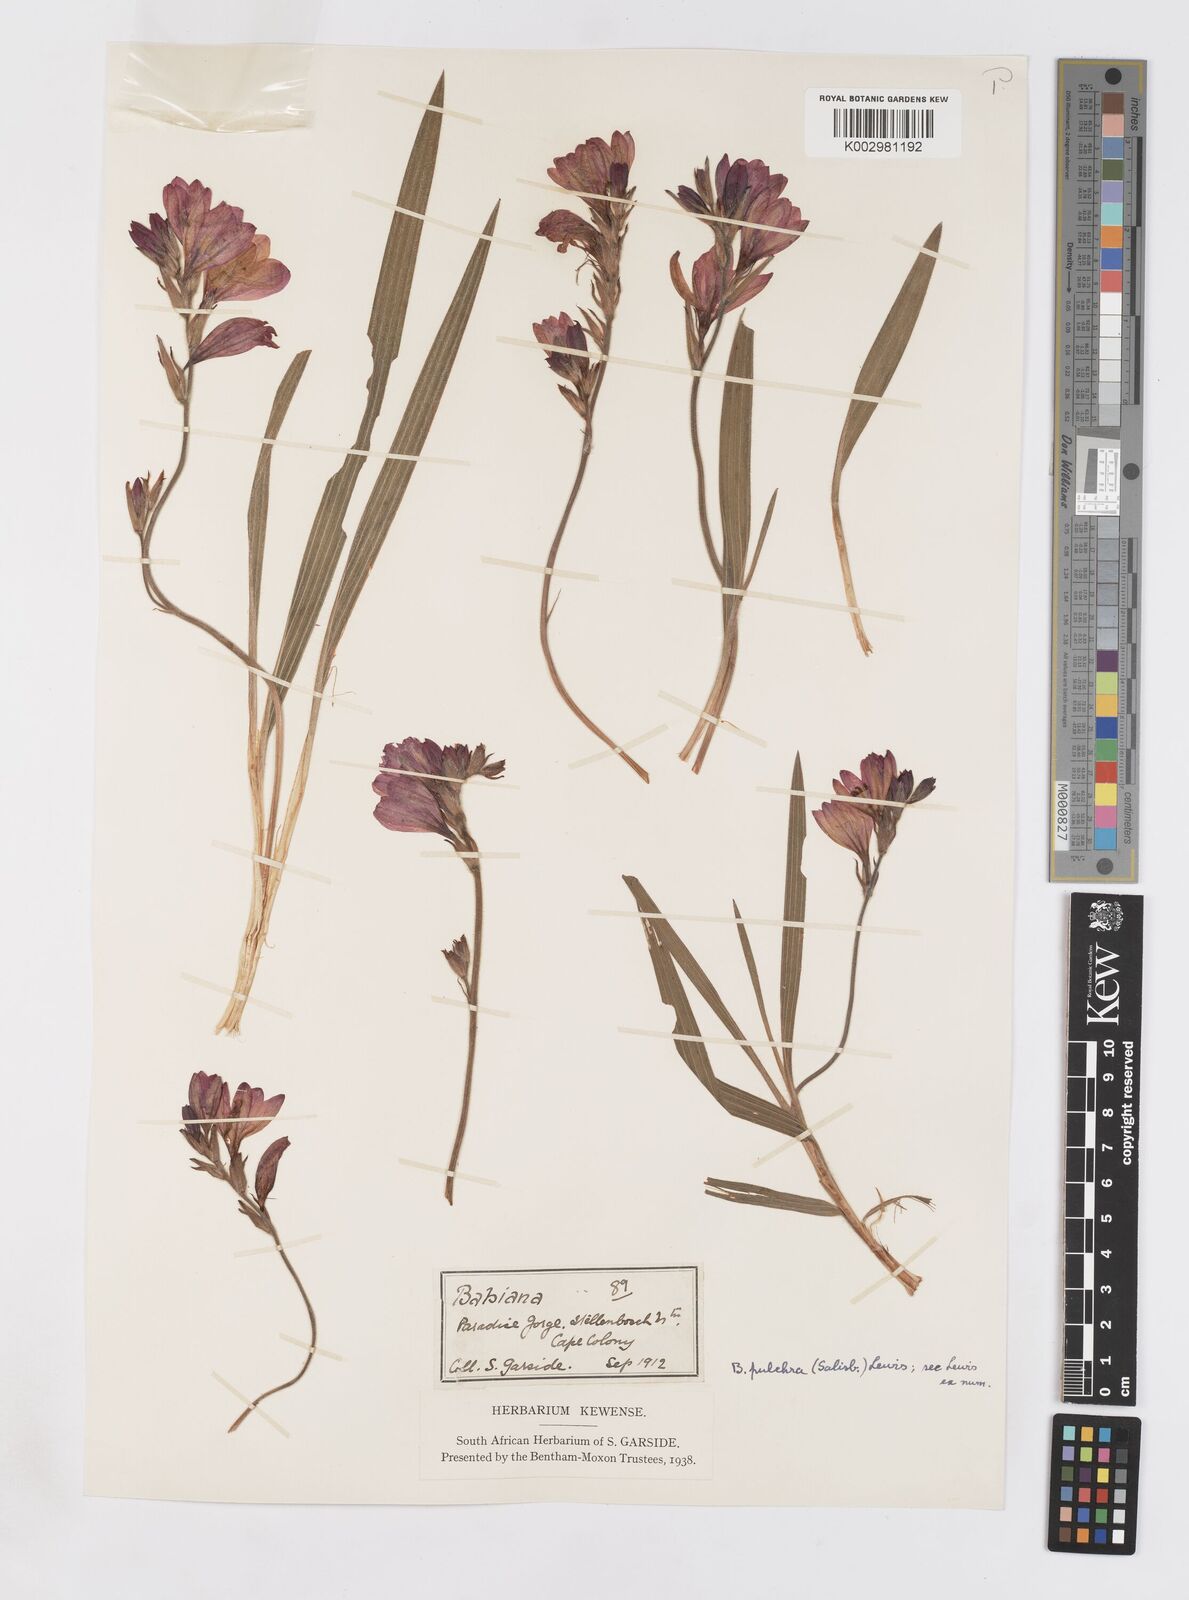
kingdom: Plantae
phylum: Tracheophyta
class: Liliopsida
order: Asparagales
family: Iridaceae
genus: Babiana
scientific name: Babiana angustifolia
